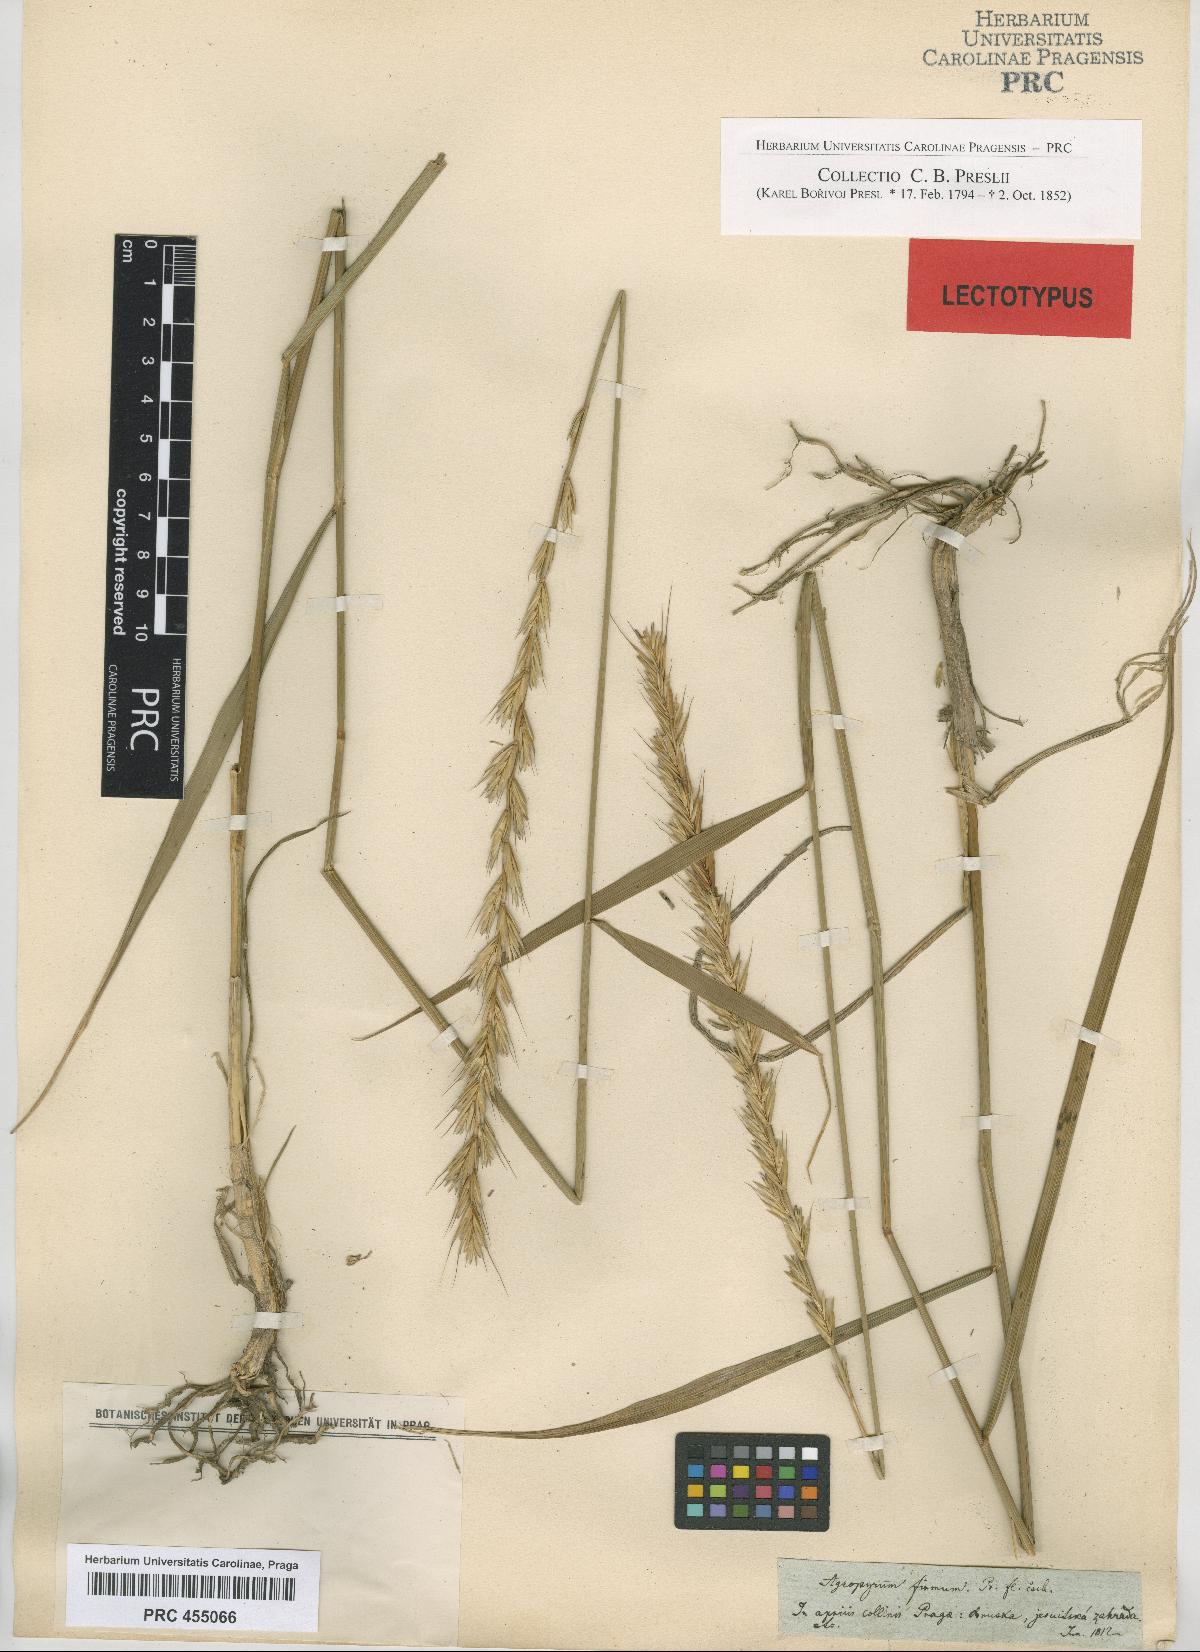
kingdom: Plantae
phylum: Tracheophyta
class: Liliopsida
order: Poales
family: Poaceae
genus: Elymus
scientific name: Elymus repens
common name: Quackgrass
